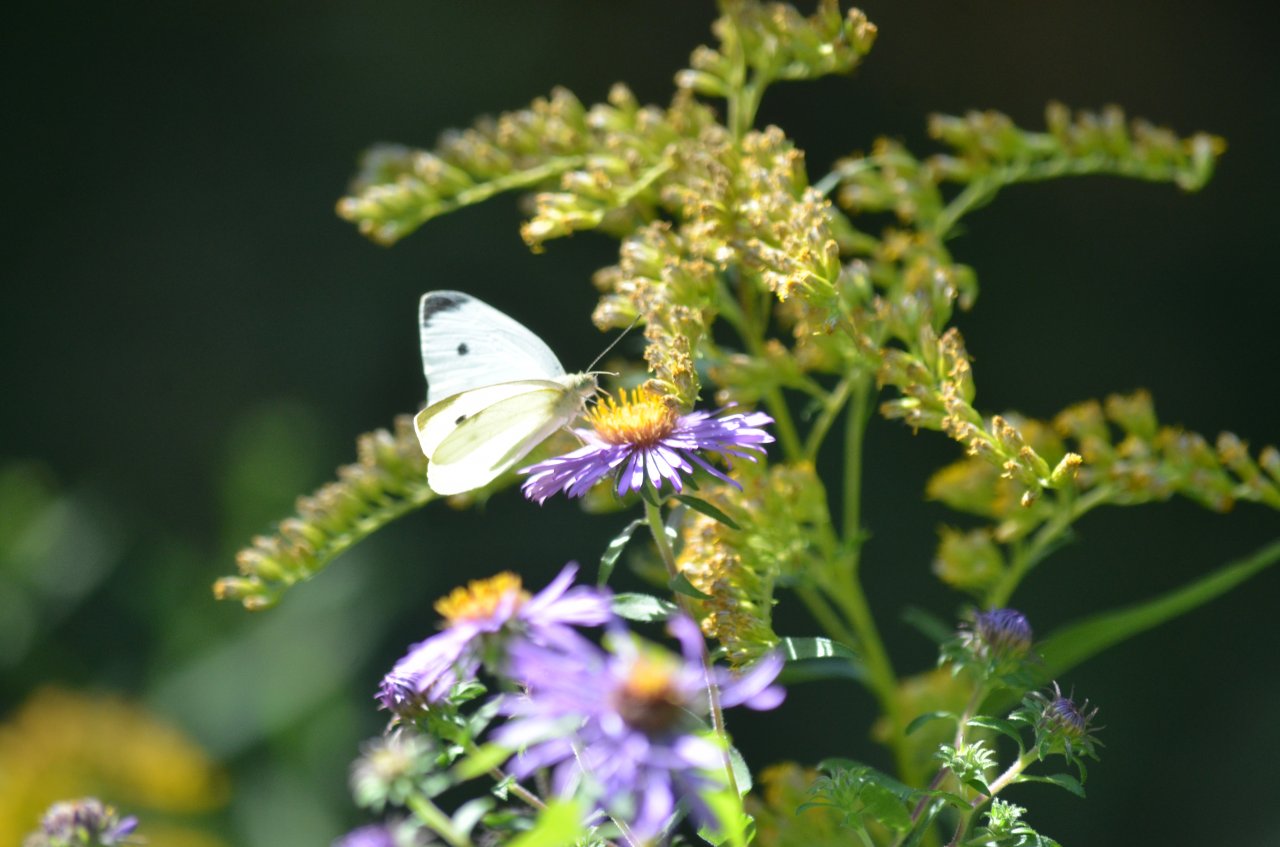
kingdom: Animalia
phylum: Arthropoda
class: Insecta
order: Lepidoptera
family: Pieridae
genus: Pieris
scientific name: Pieris rapae
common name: Cabbage White
